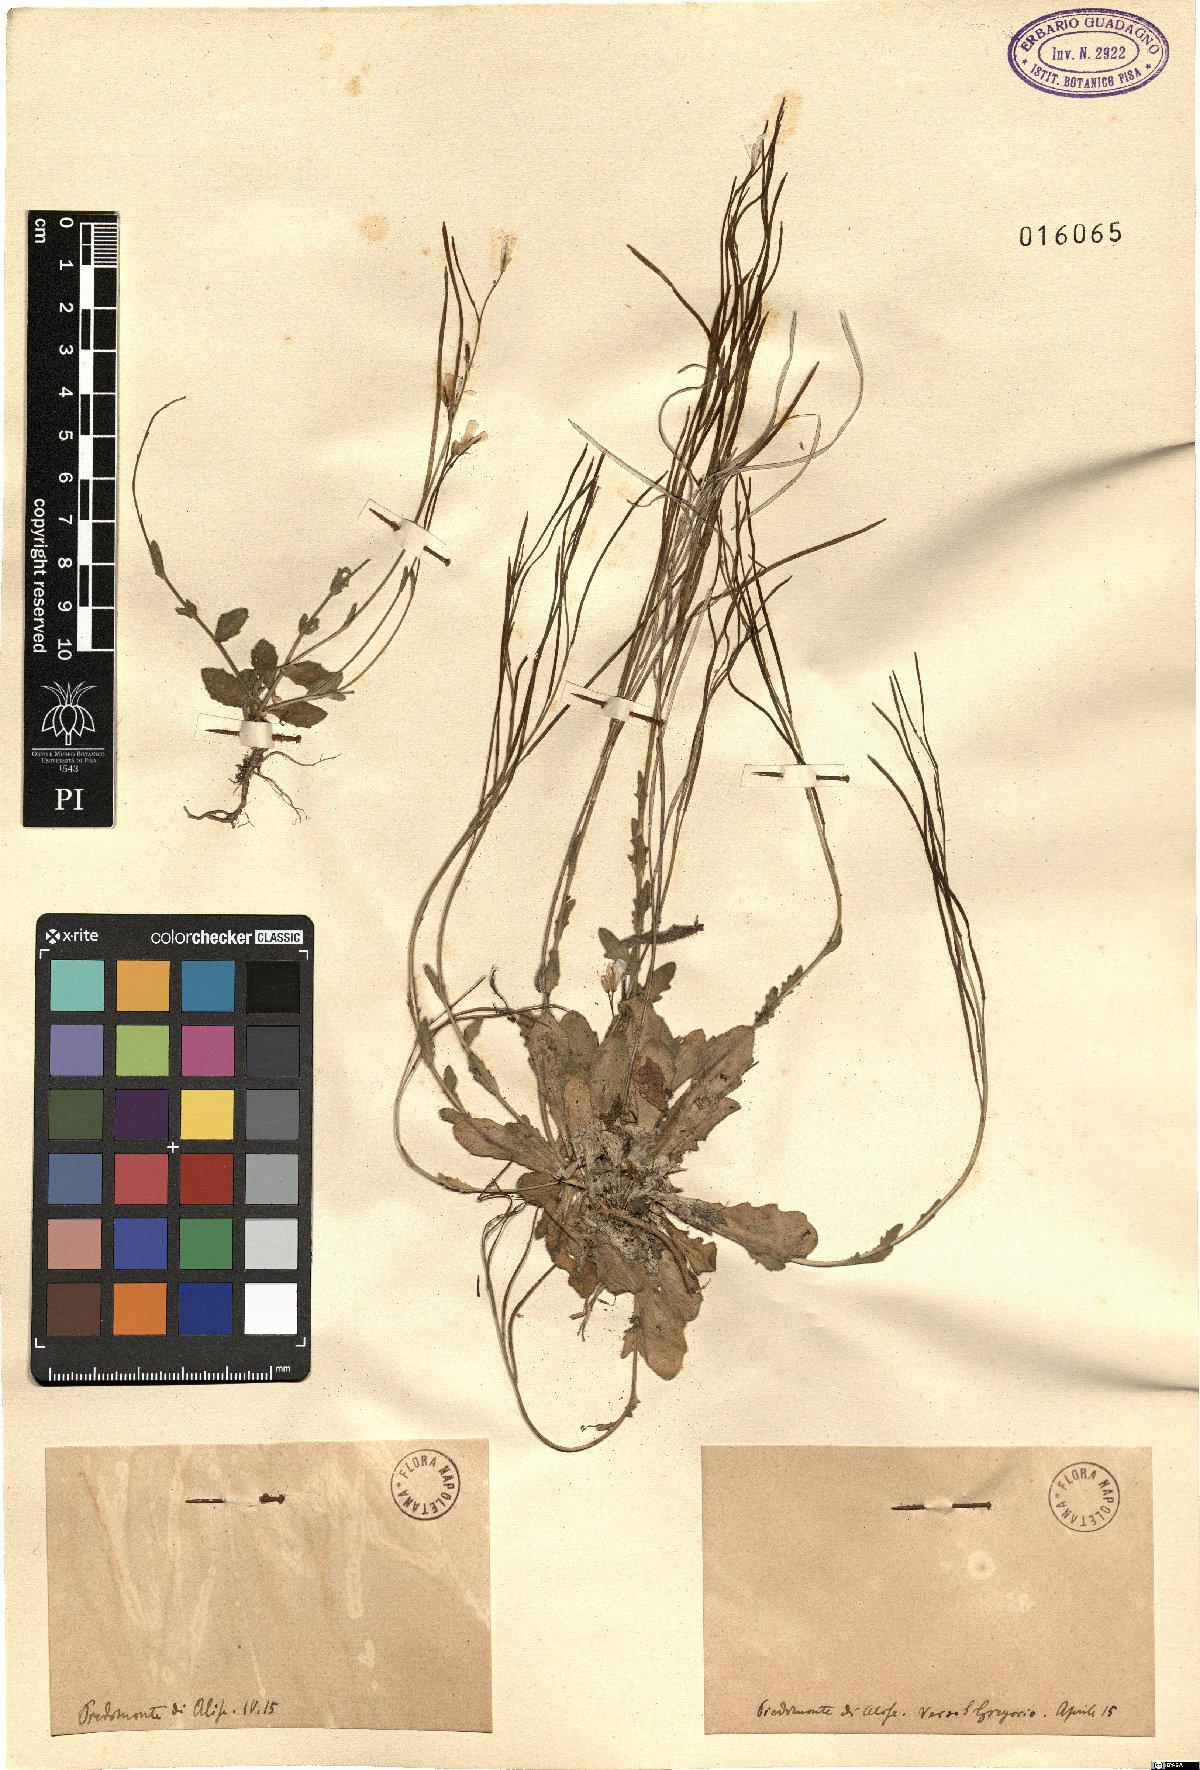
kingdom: Plantae
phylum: Tracheophyta
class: Magnoliopsida
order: Brassicales
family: Brassicaceae
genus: Arabis
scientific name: Arabis
